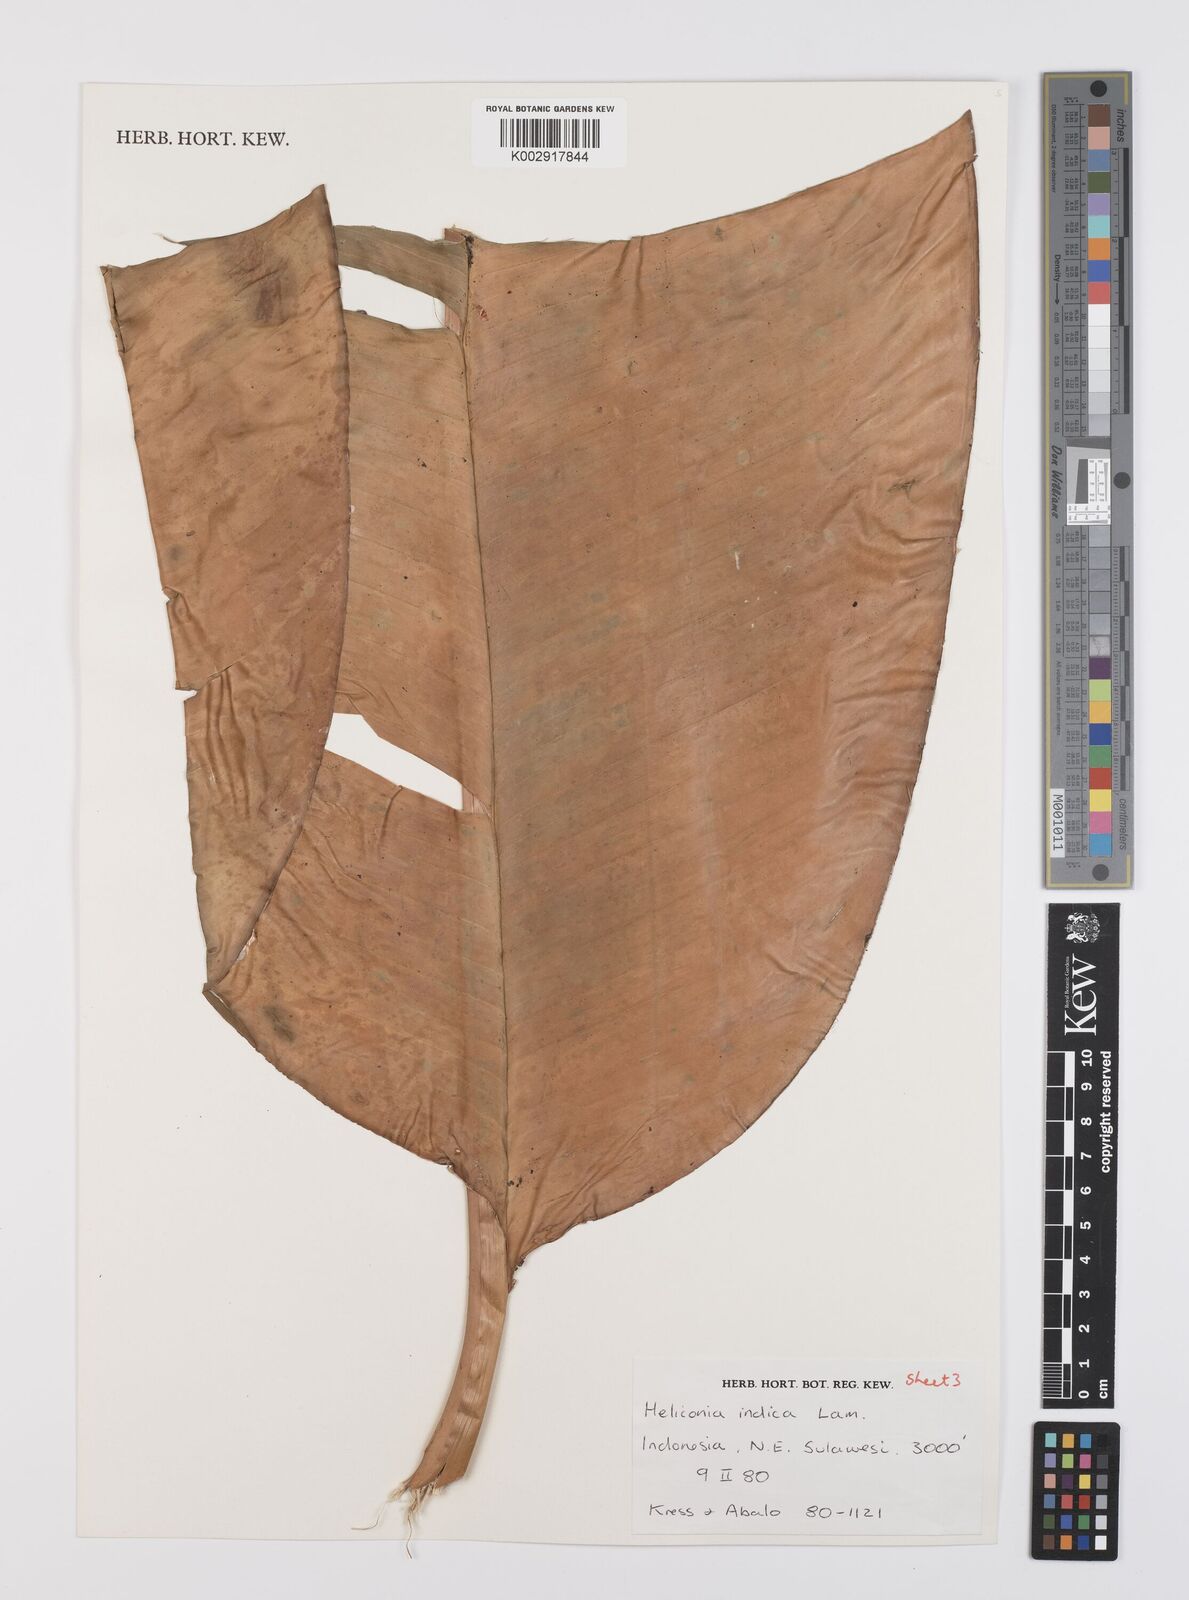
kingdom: Plantae
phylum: Tracheophyta
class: Liliopsida
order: Zingiberales
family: Heliconiaceae
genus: Heliconia
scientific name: Heliconia indica
